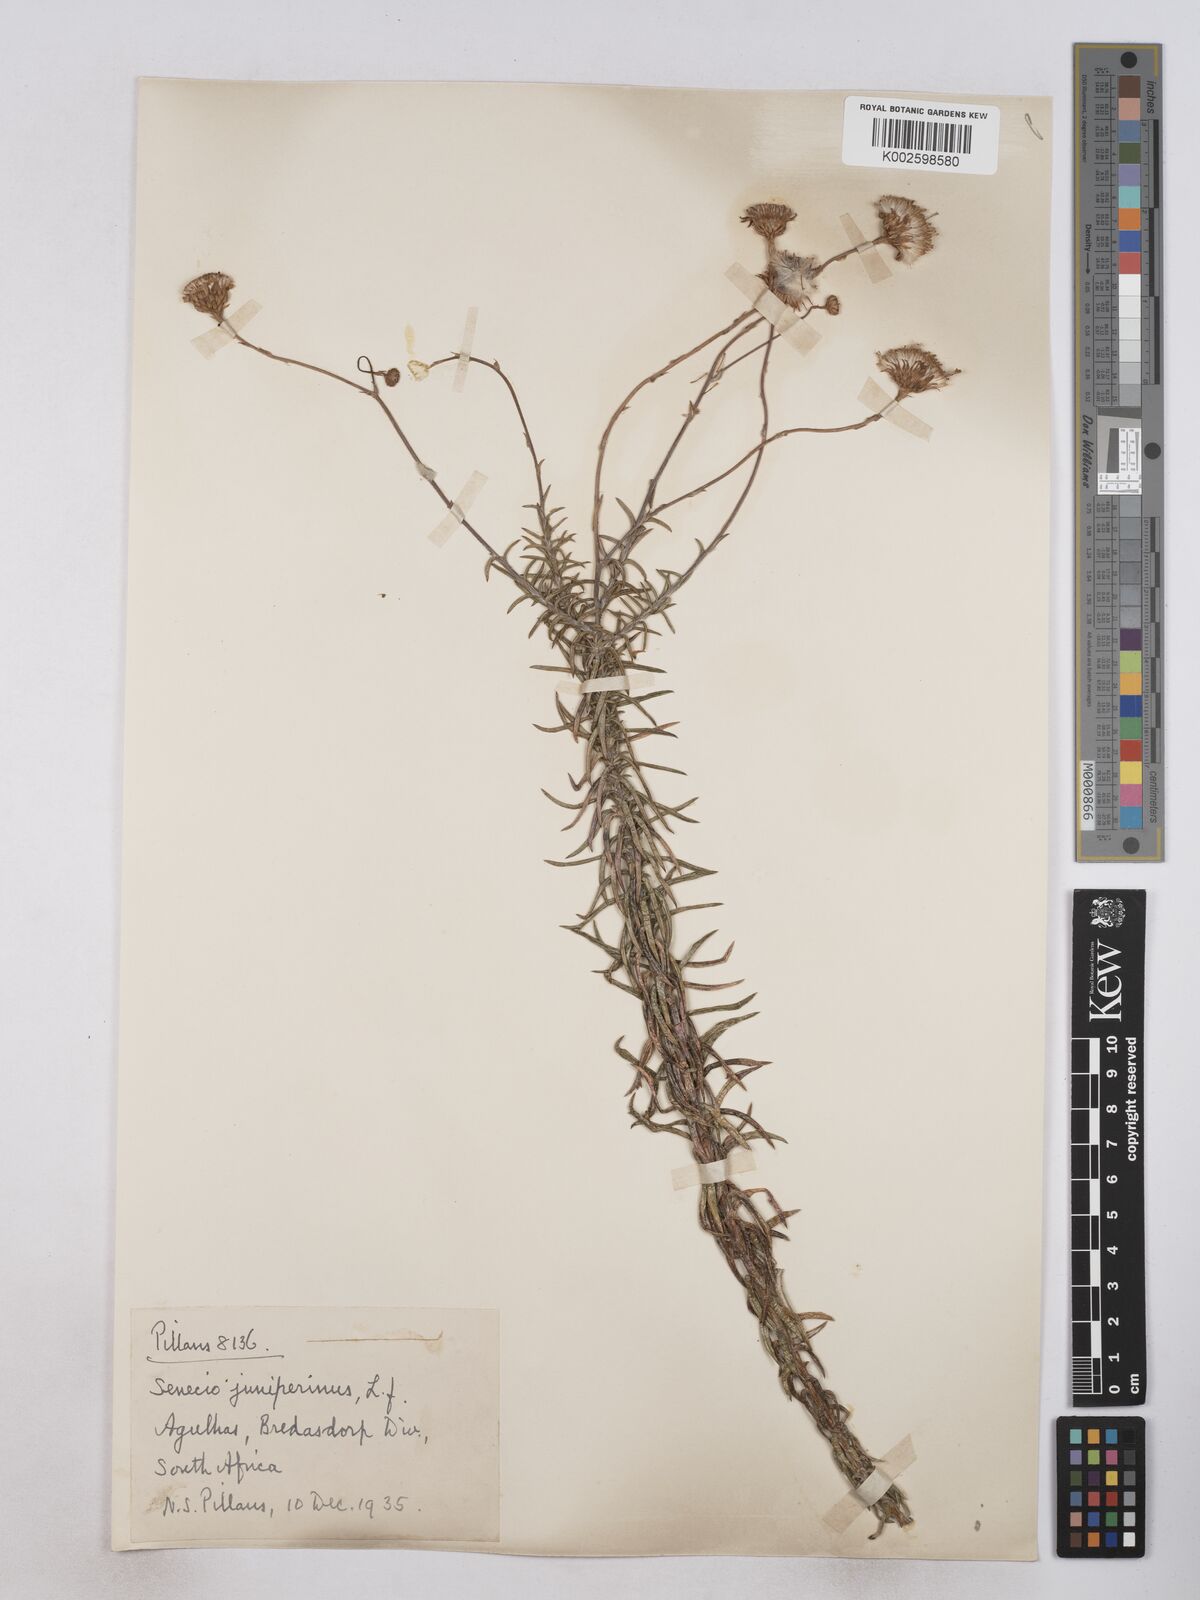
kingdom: Plantae
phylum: Tracheophyta
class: Magnoliopsida
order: Asterales
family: Asteraceae
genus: Senecio
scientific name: Senecio juniperinus
